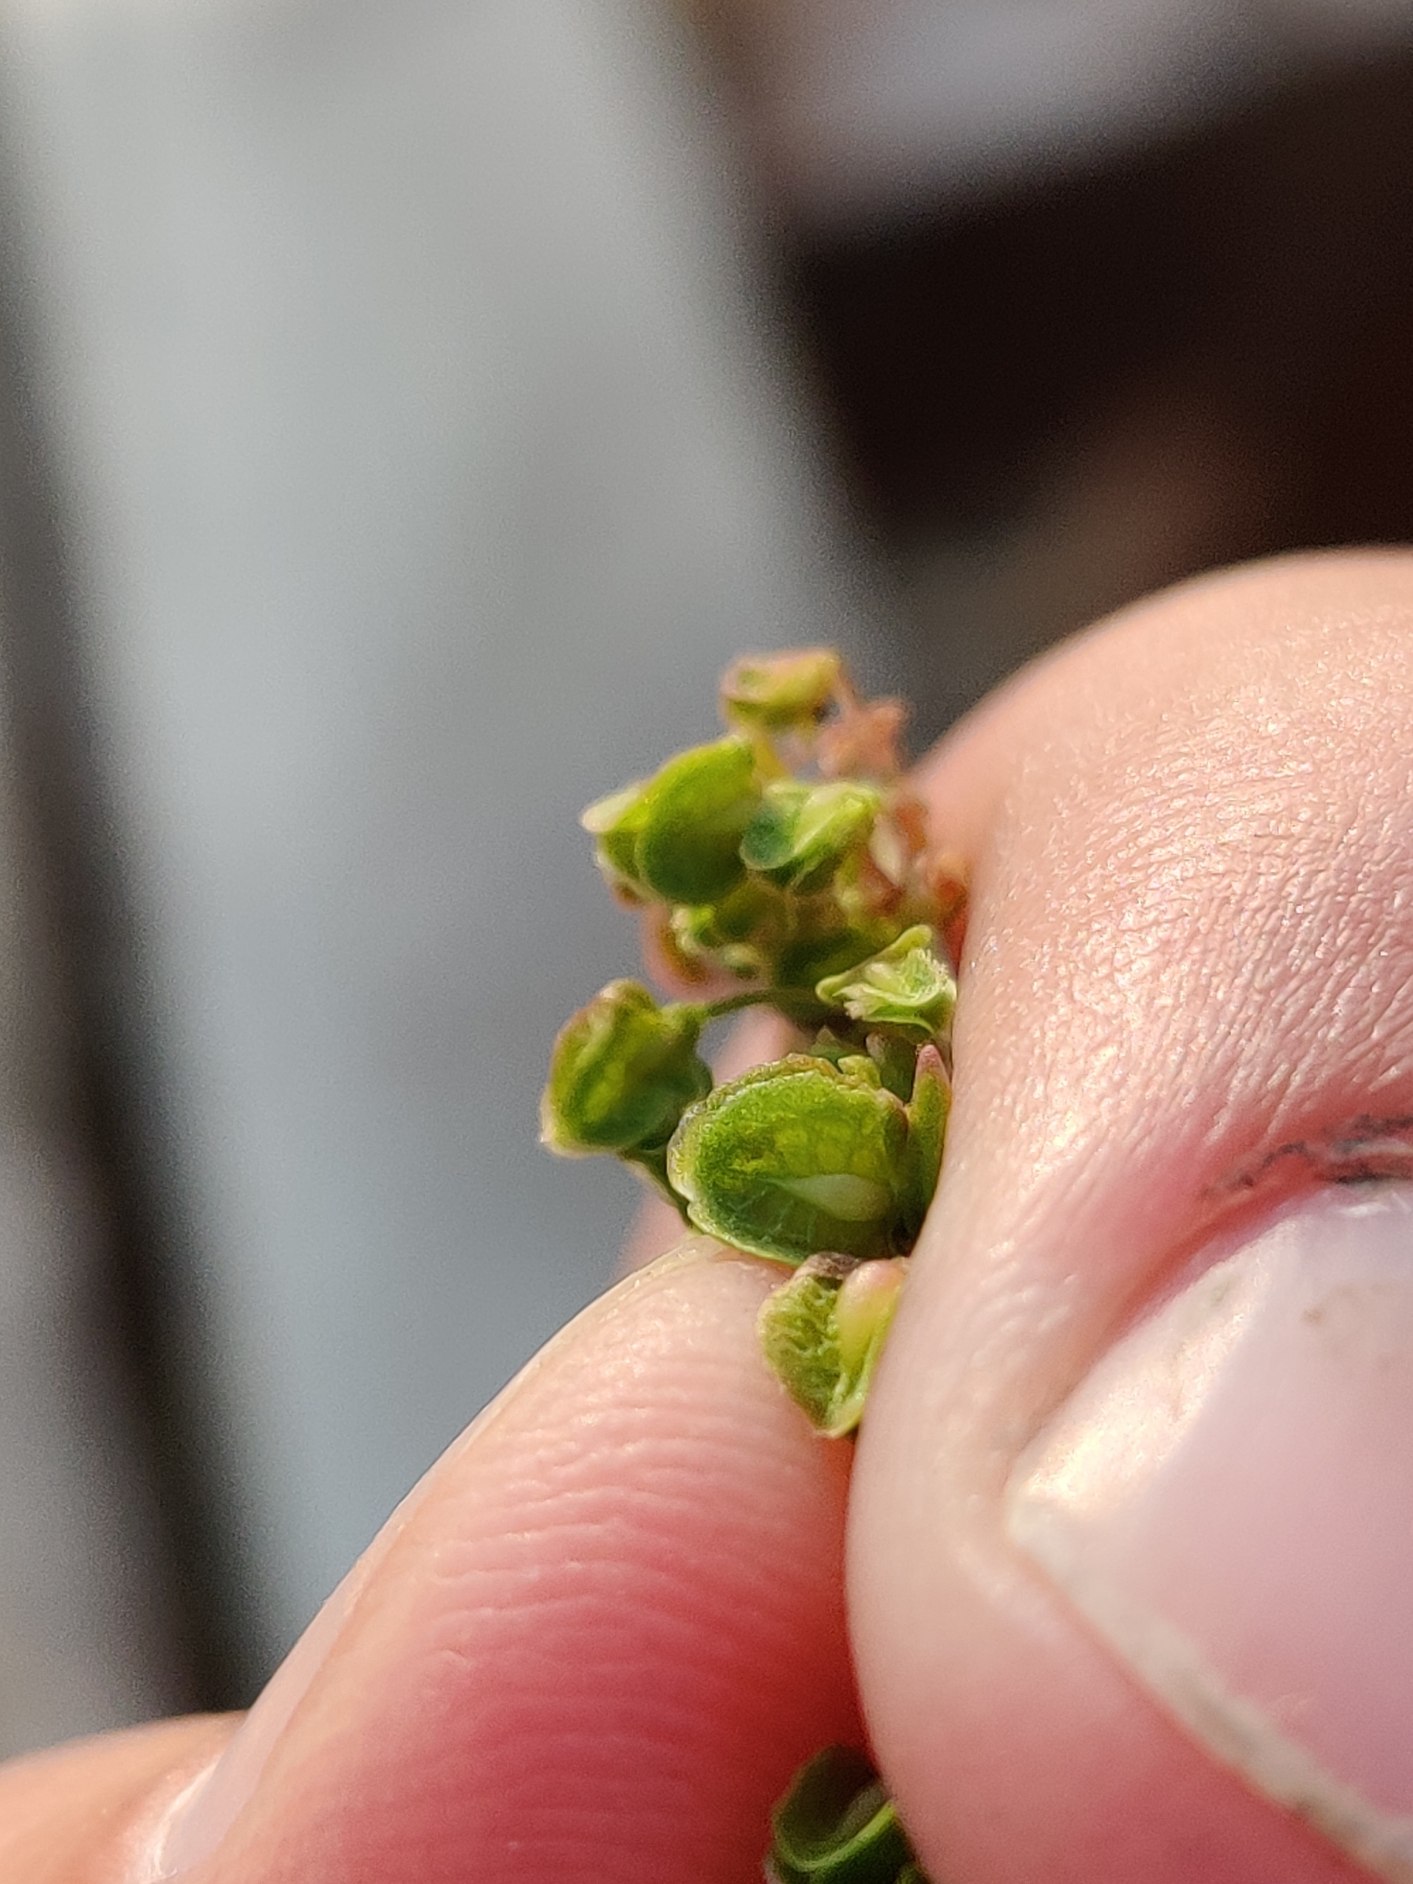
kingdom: Plantae
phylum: Tracheophyta
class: Magnoliopsida
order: Caryophyllales
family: Polygonaceae
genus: Rumex
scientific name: Rumex crispus
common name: Kruset skræppe
